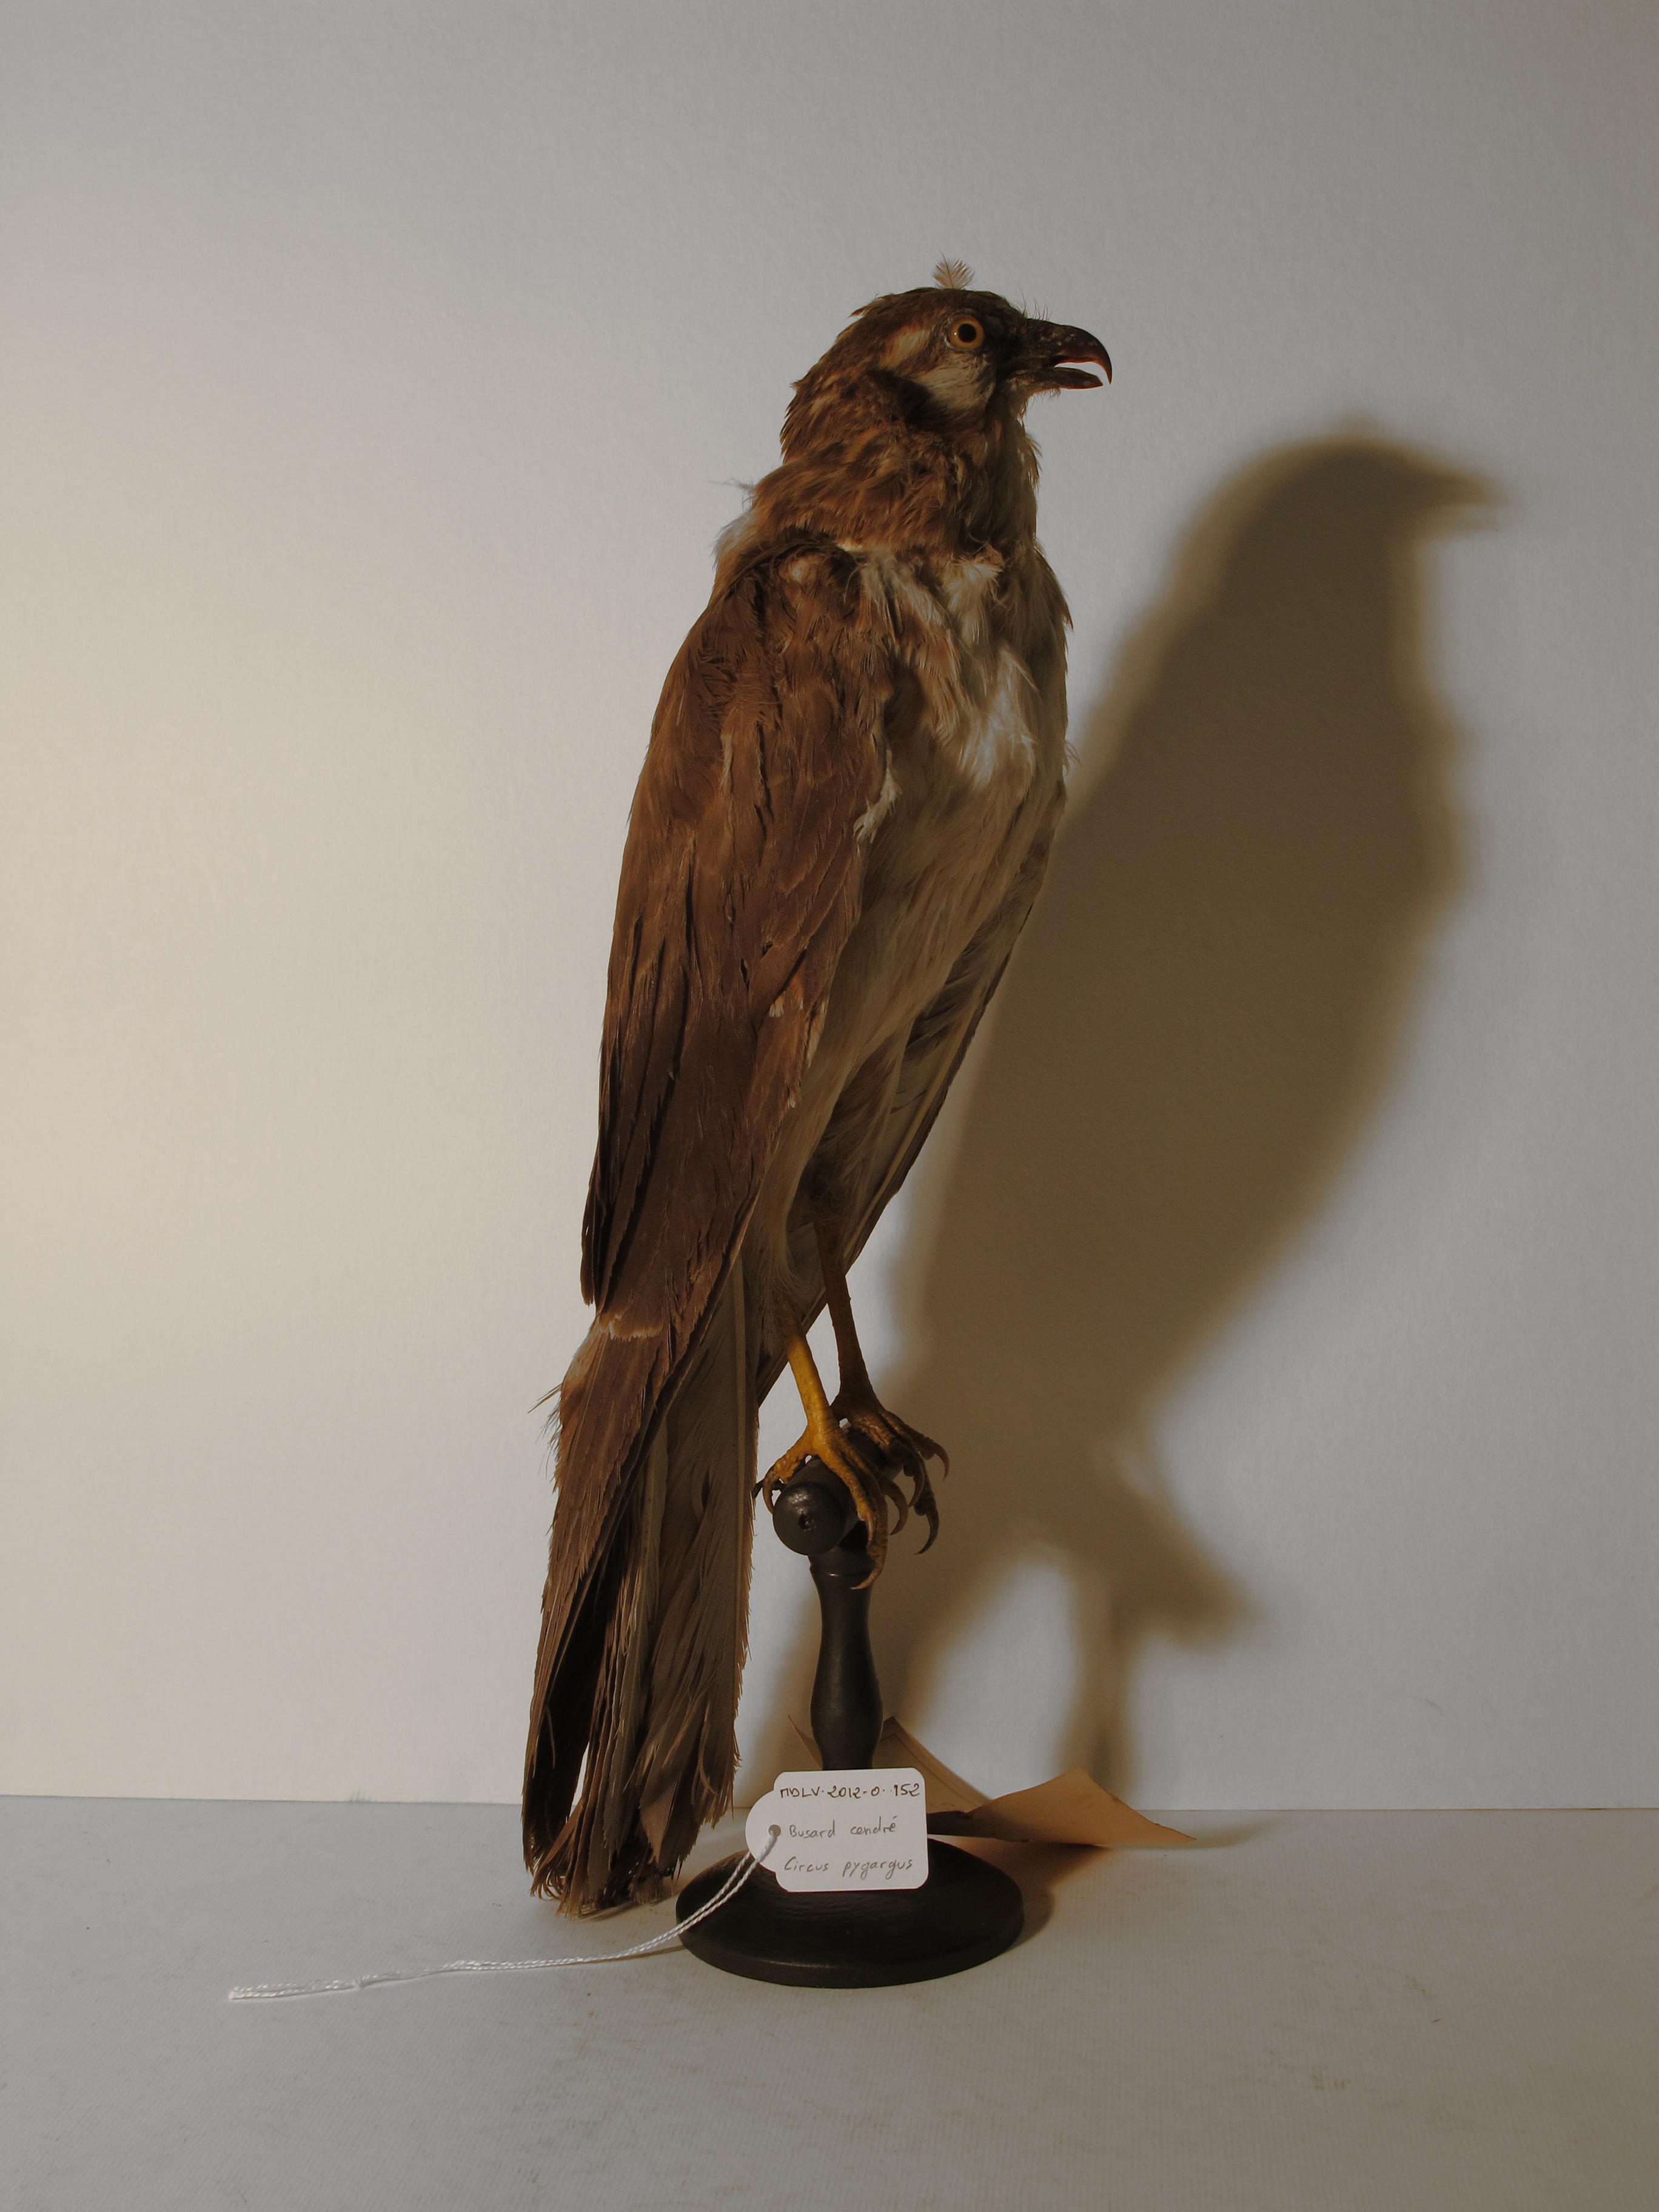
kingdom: Animalia
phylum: Chordata
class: Aves
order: Accipitriformes
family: Accipitridae
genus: Circus
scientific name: Circus pygargus
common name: Montagu's Harrier
